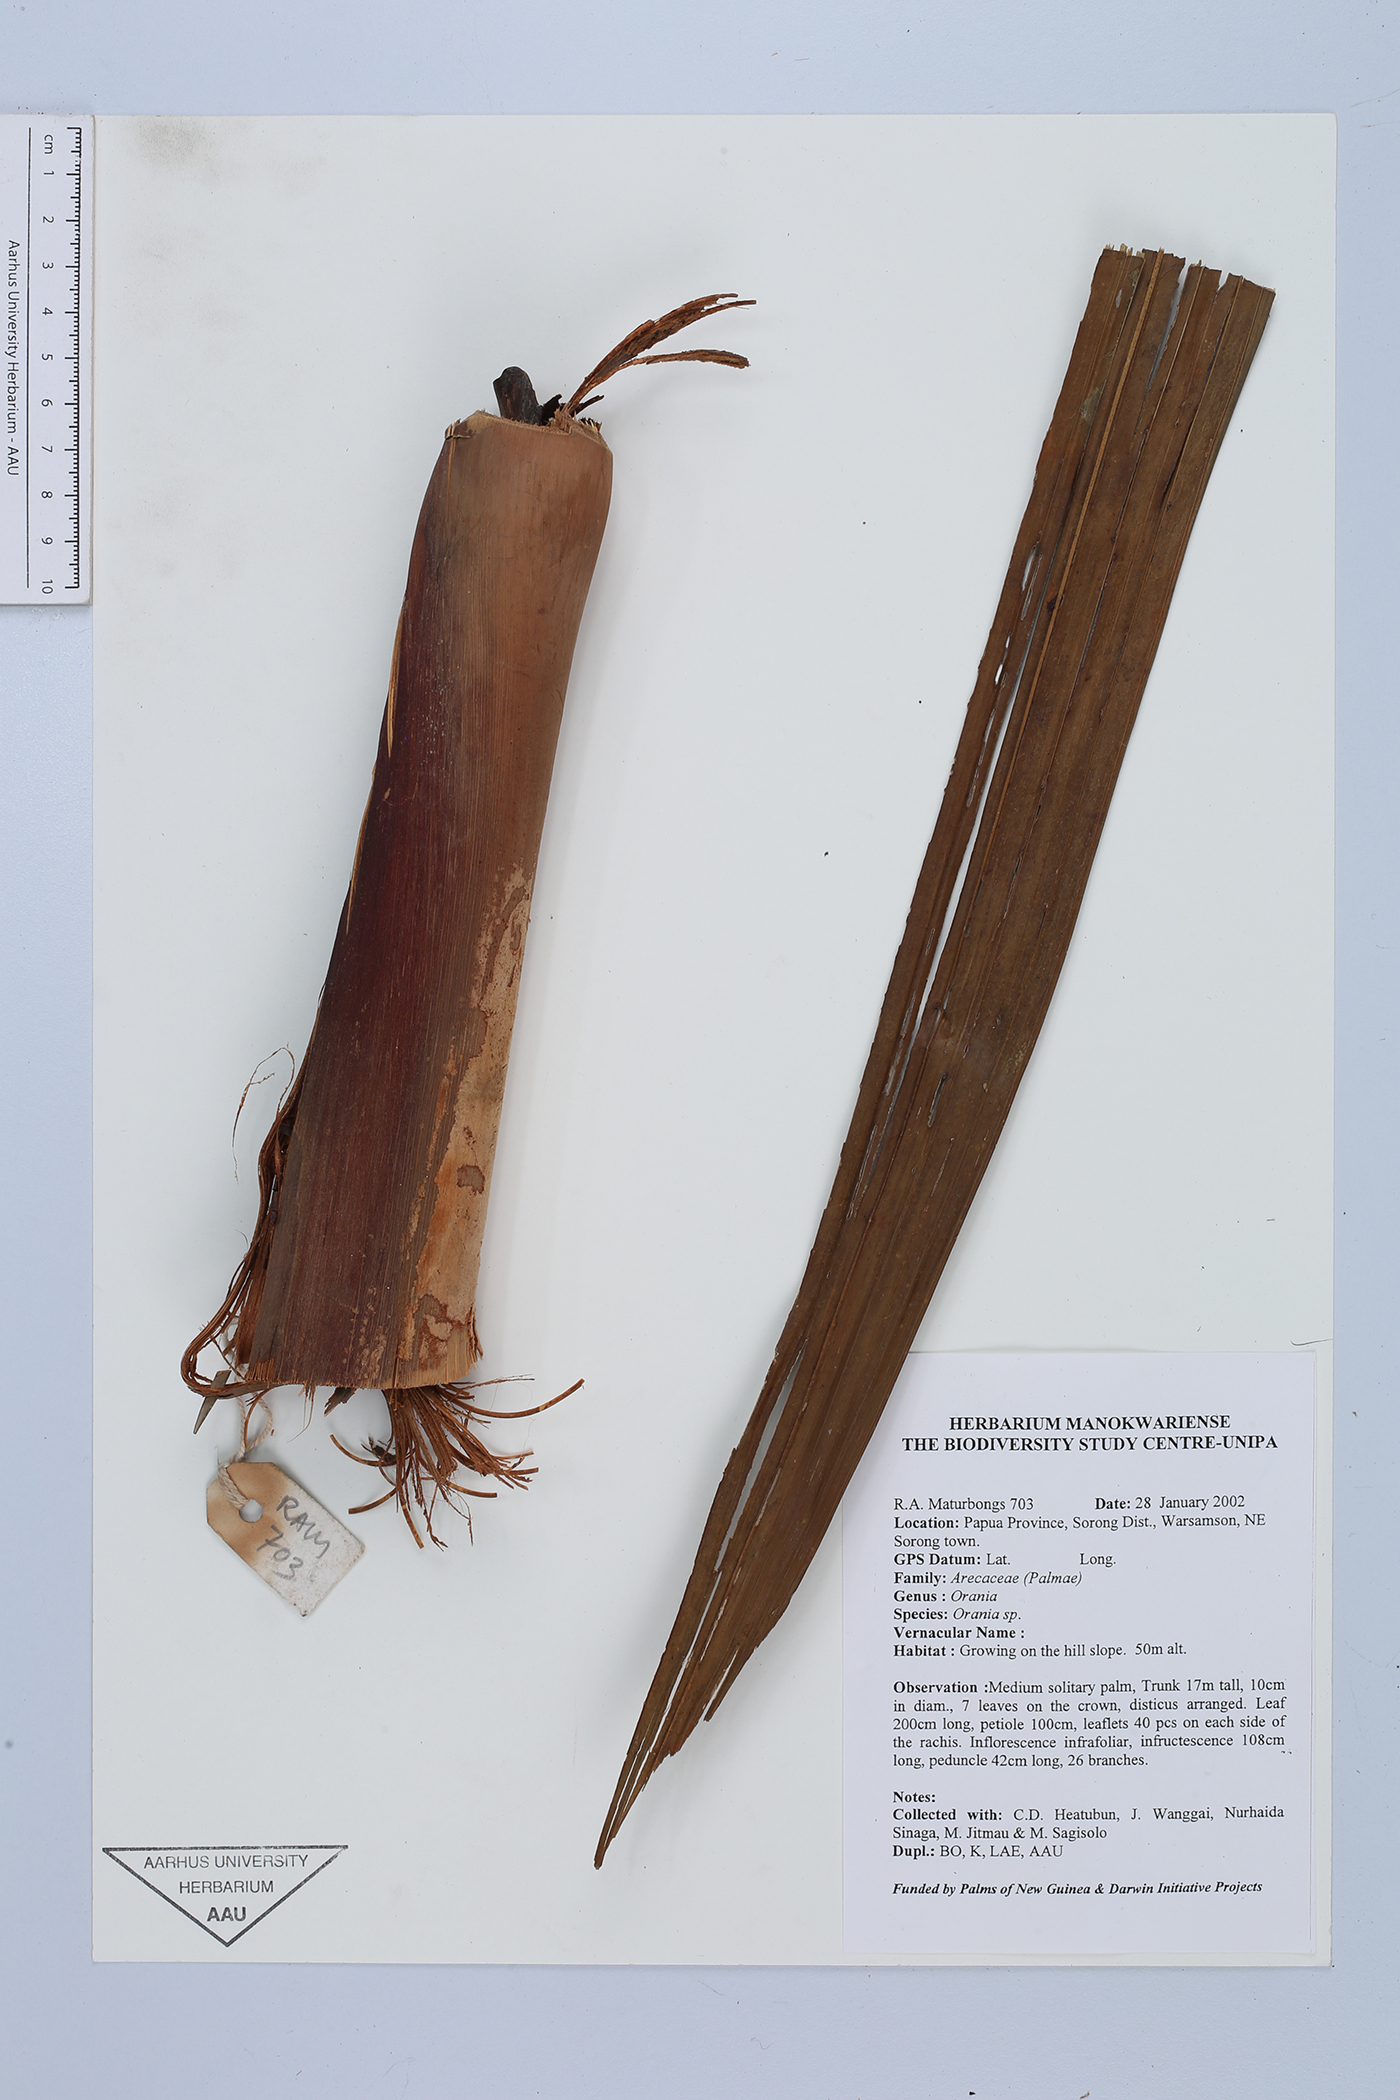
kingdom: Plantae
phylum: Tracheophyta
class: Liliopsida
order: Arecales
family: Arecaceae
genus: Orania
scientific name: Orania
